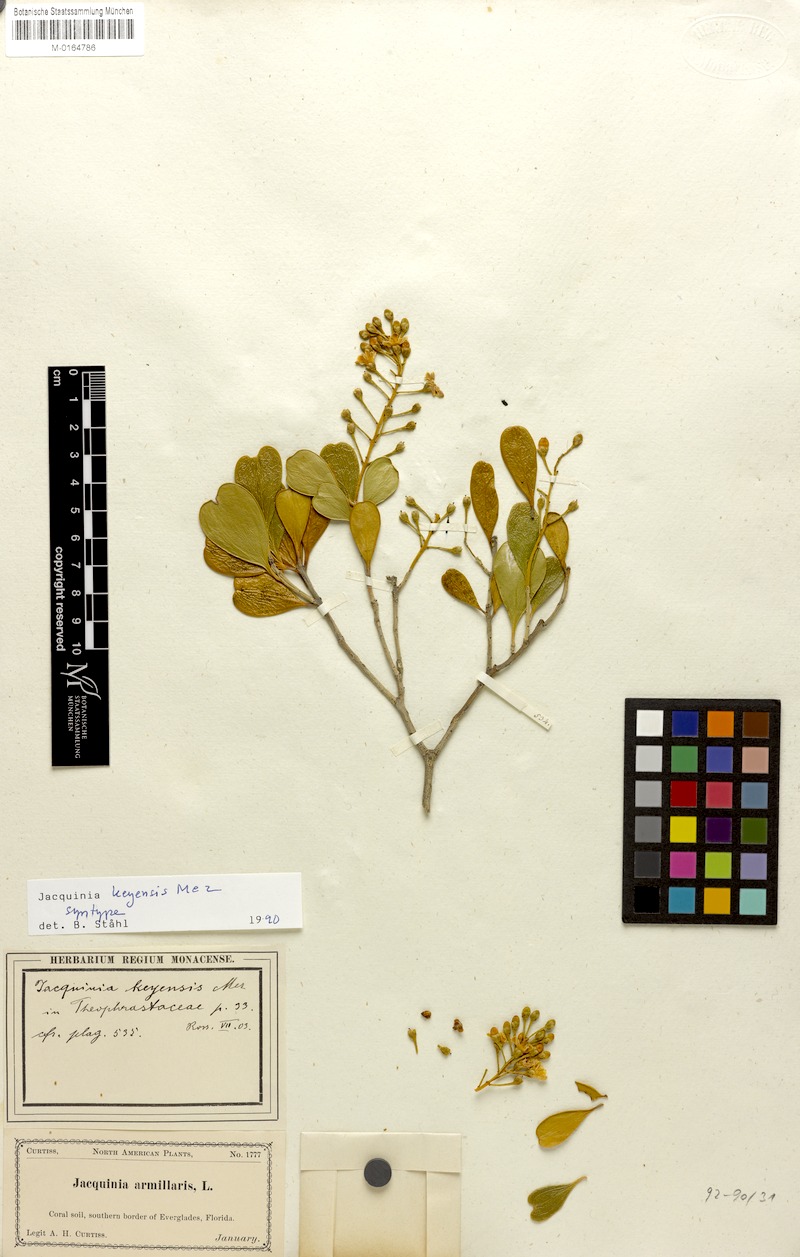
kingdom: Plantae
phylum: Tracheophyta
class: Magnoliopsida
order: Ericales
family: Primulaceae
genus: Jacquinia
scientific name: Jacquinia keyensis
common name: Joebush
